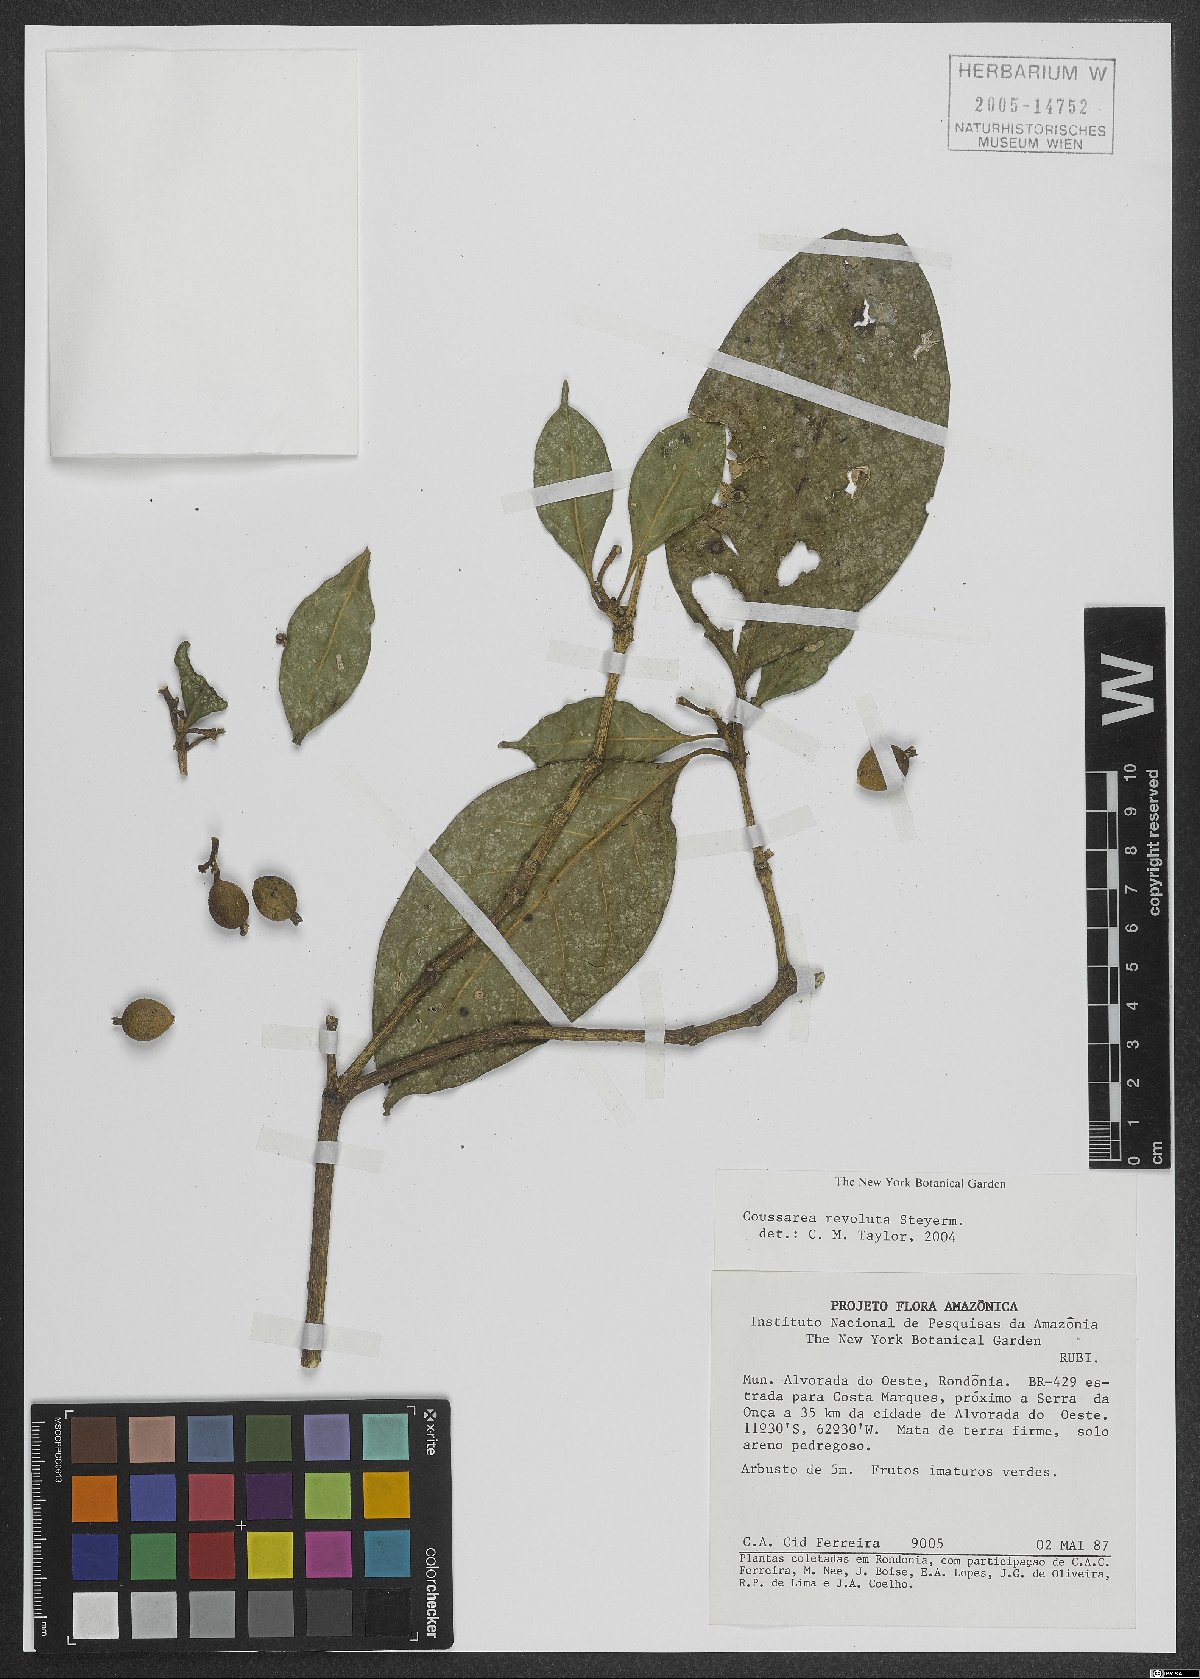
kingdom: Plantae
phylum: Tracheophyta
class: Magnoliopsida
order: Gentianales
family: Rubiaceae
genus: Coussarea
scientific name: Coussarea revoluta
